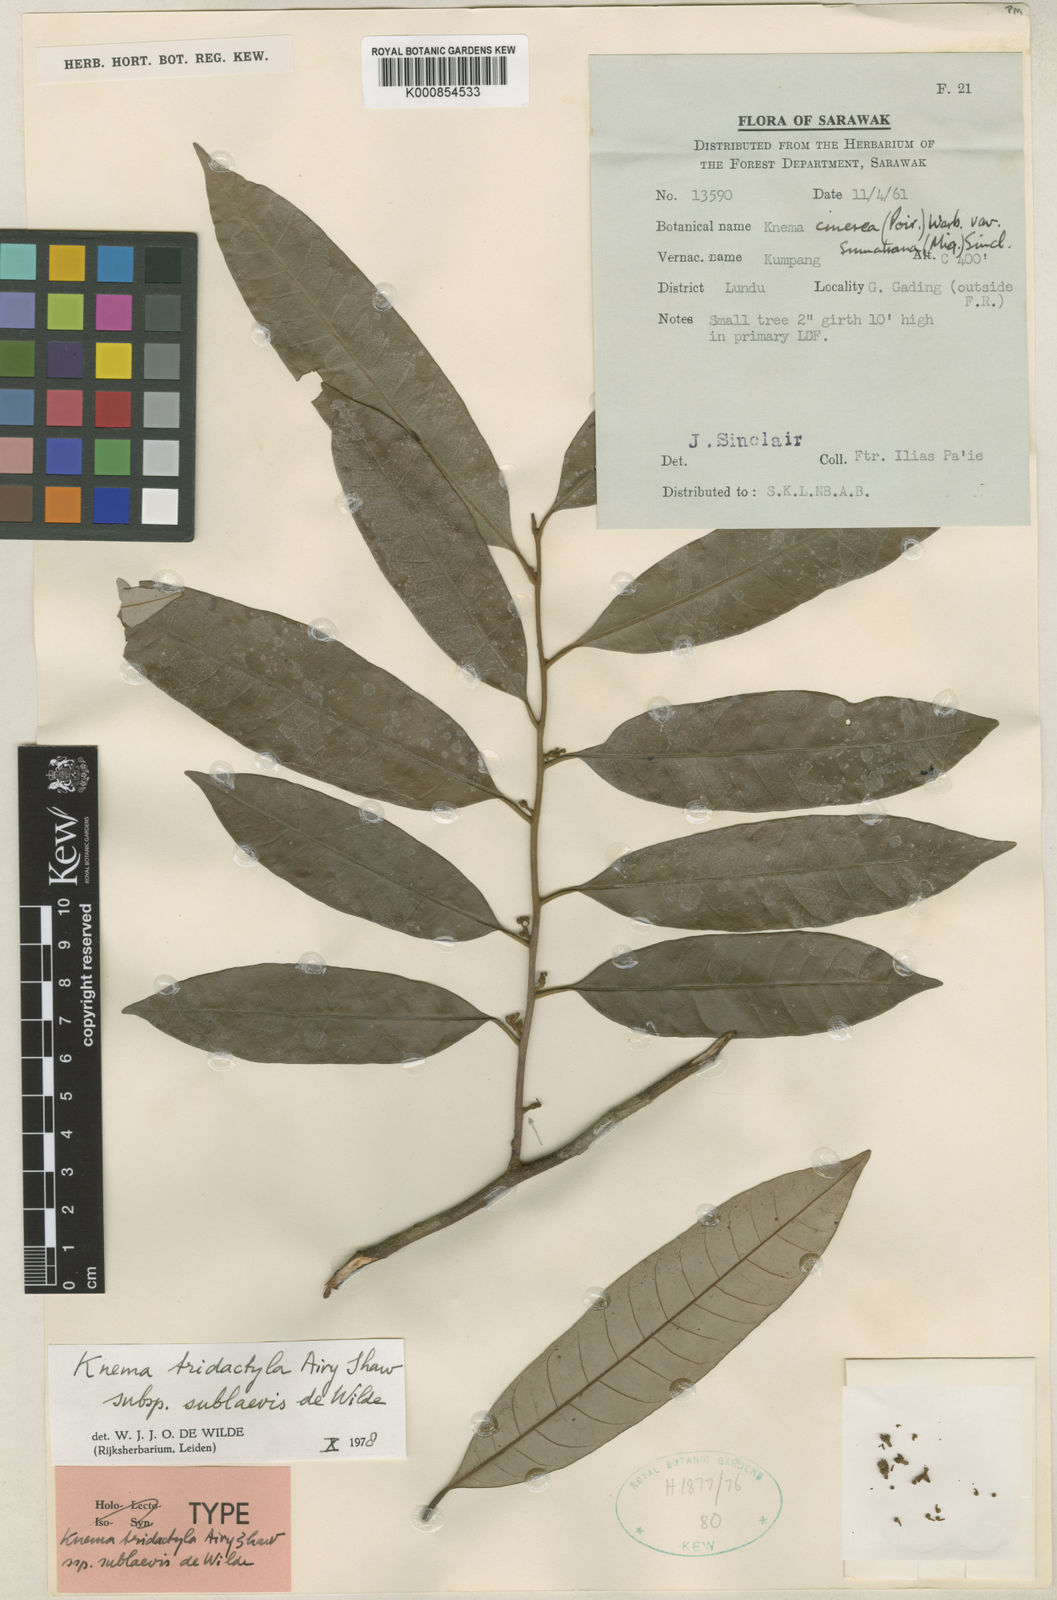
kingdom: Plantae
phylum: Tracheophyta
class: Magnoliopsida
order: Magnoliales
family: Myristicaceae
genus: Knema
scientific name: Knema tridactyla
